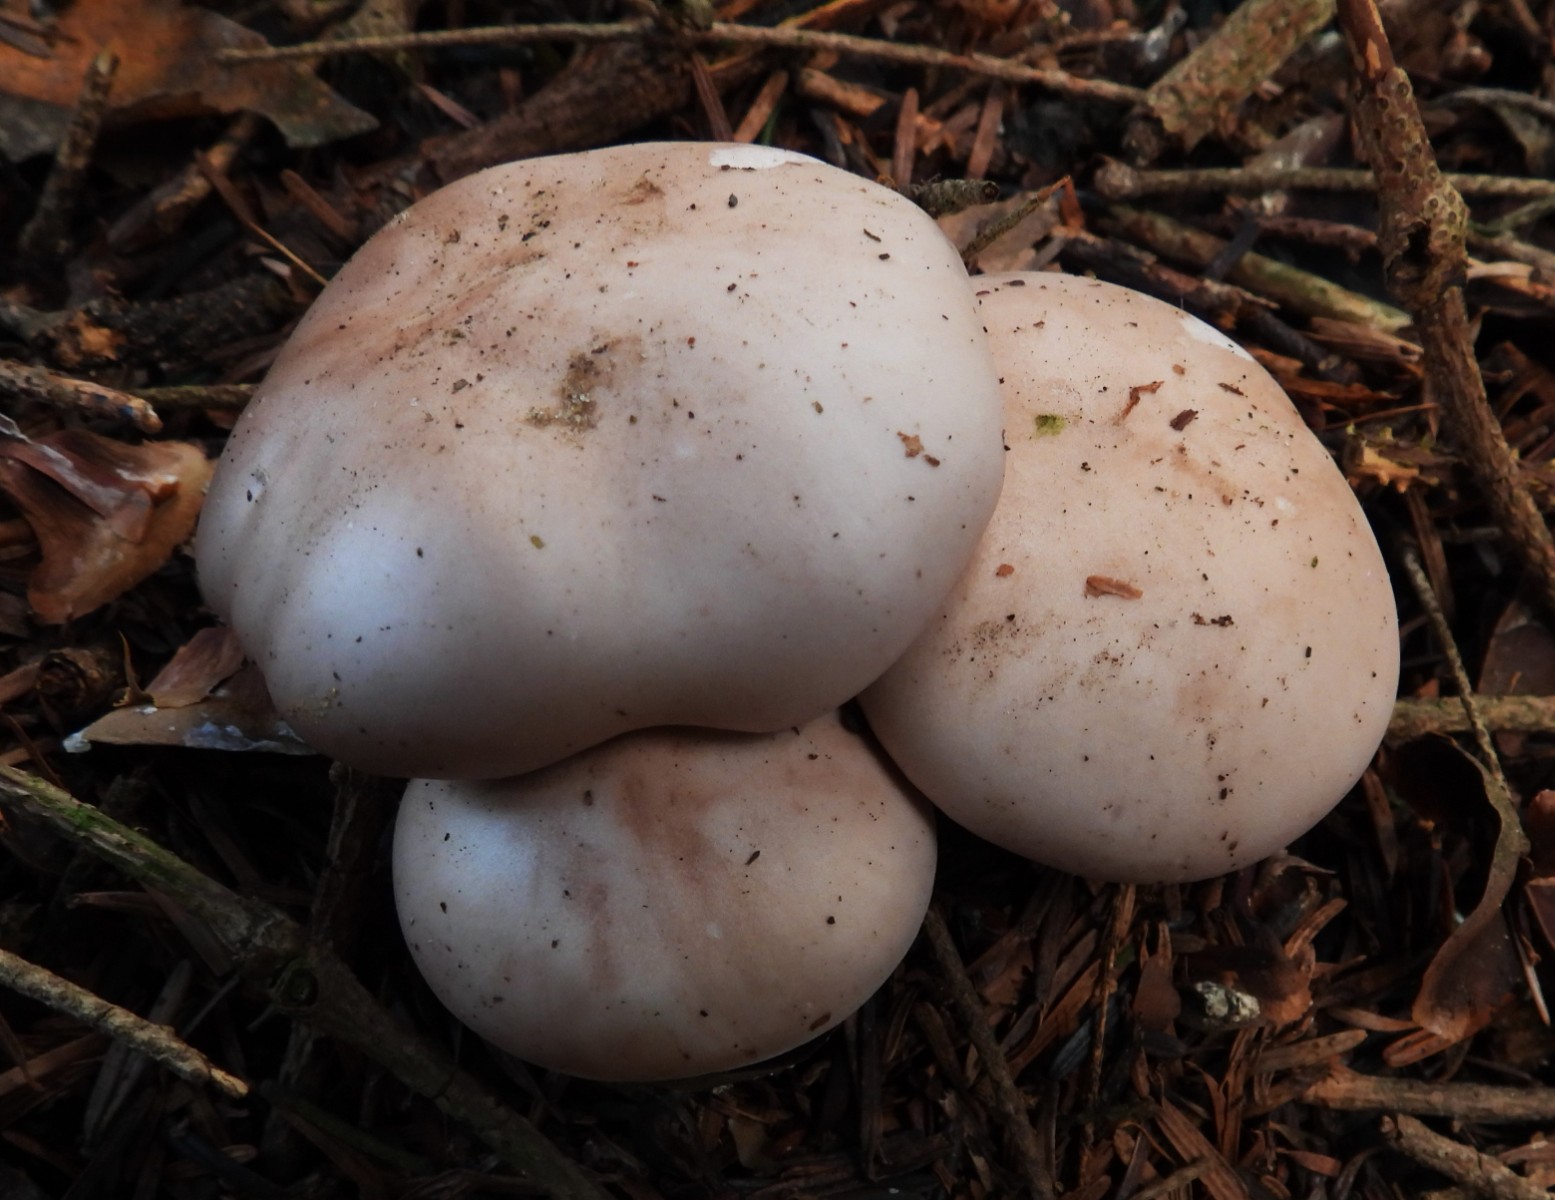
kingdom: Fungi
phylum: Basidiomycota
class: Agaricomycetes
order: Agaricales
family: Tricholomataceae
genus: Lepista
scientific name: Lepista nuda
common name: violet hekseringshat
